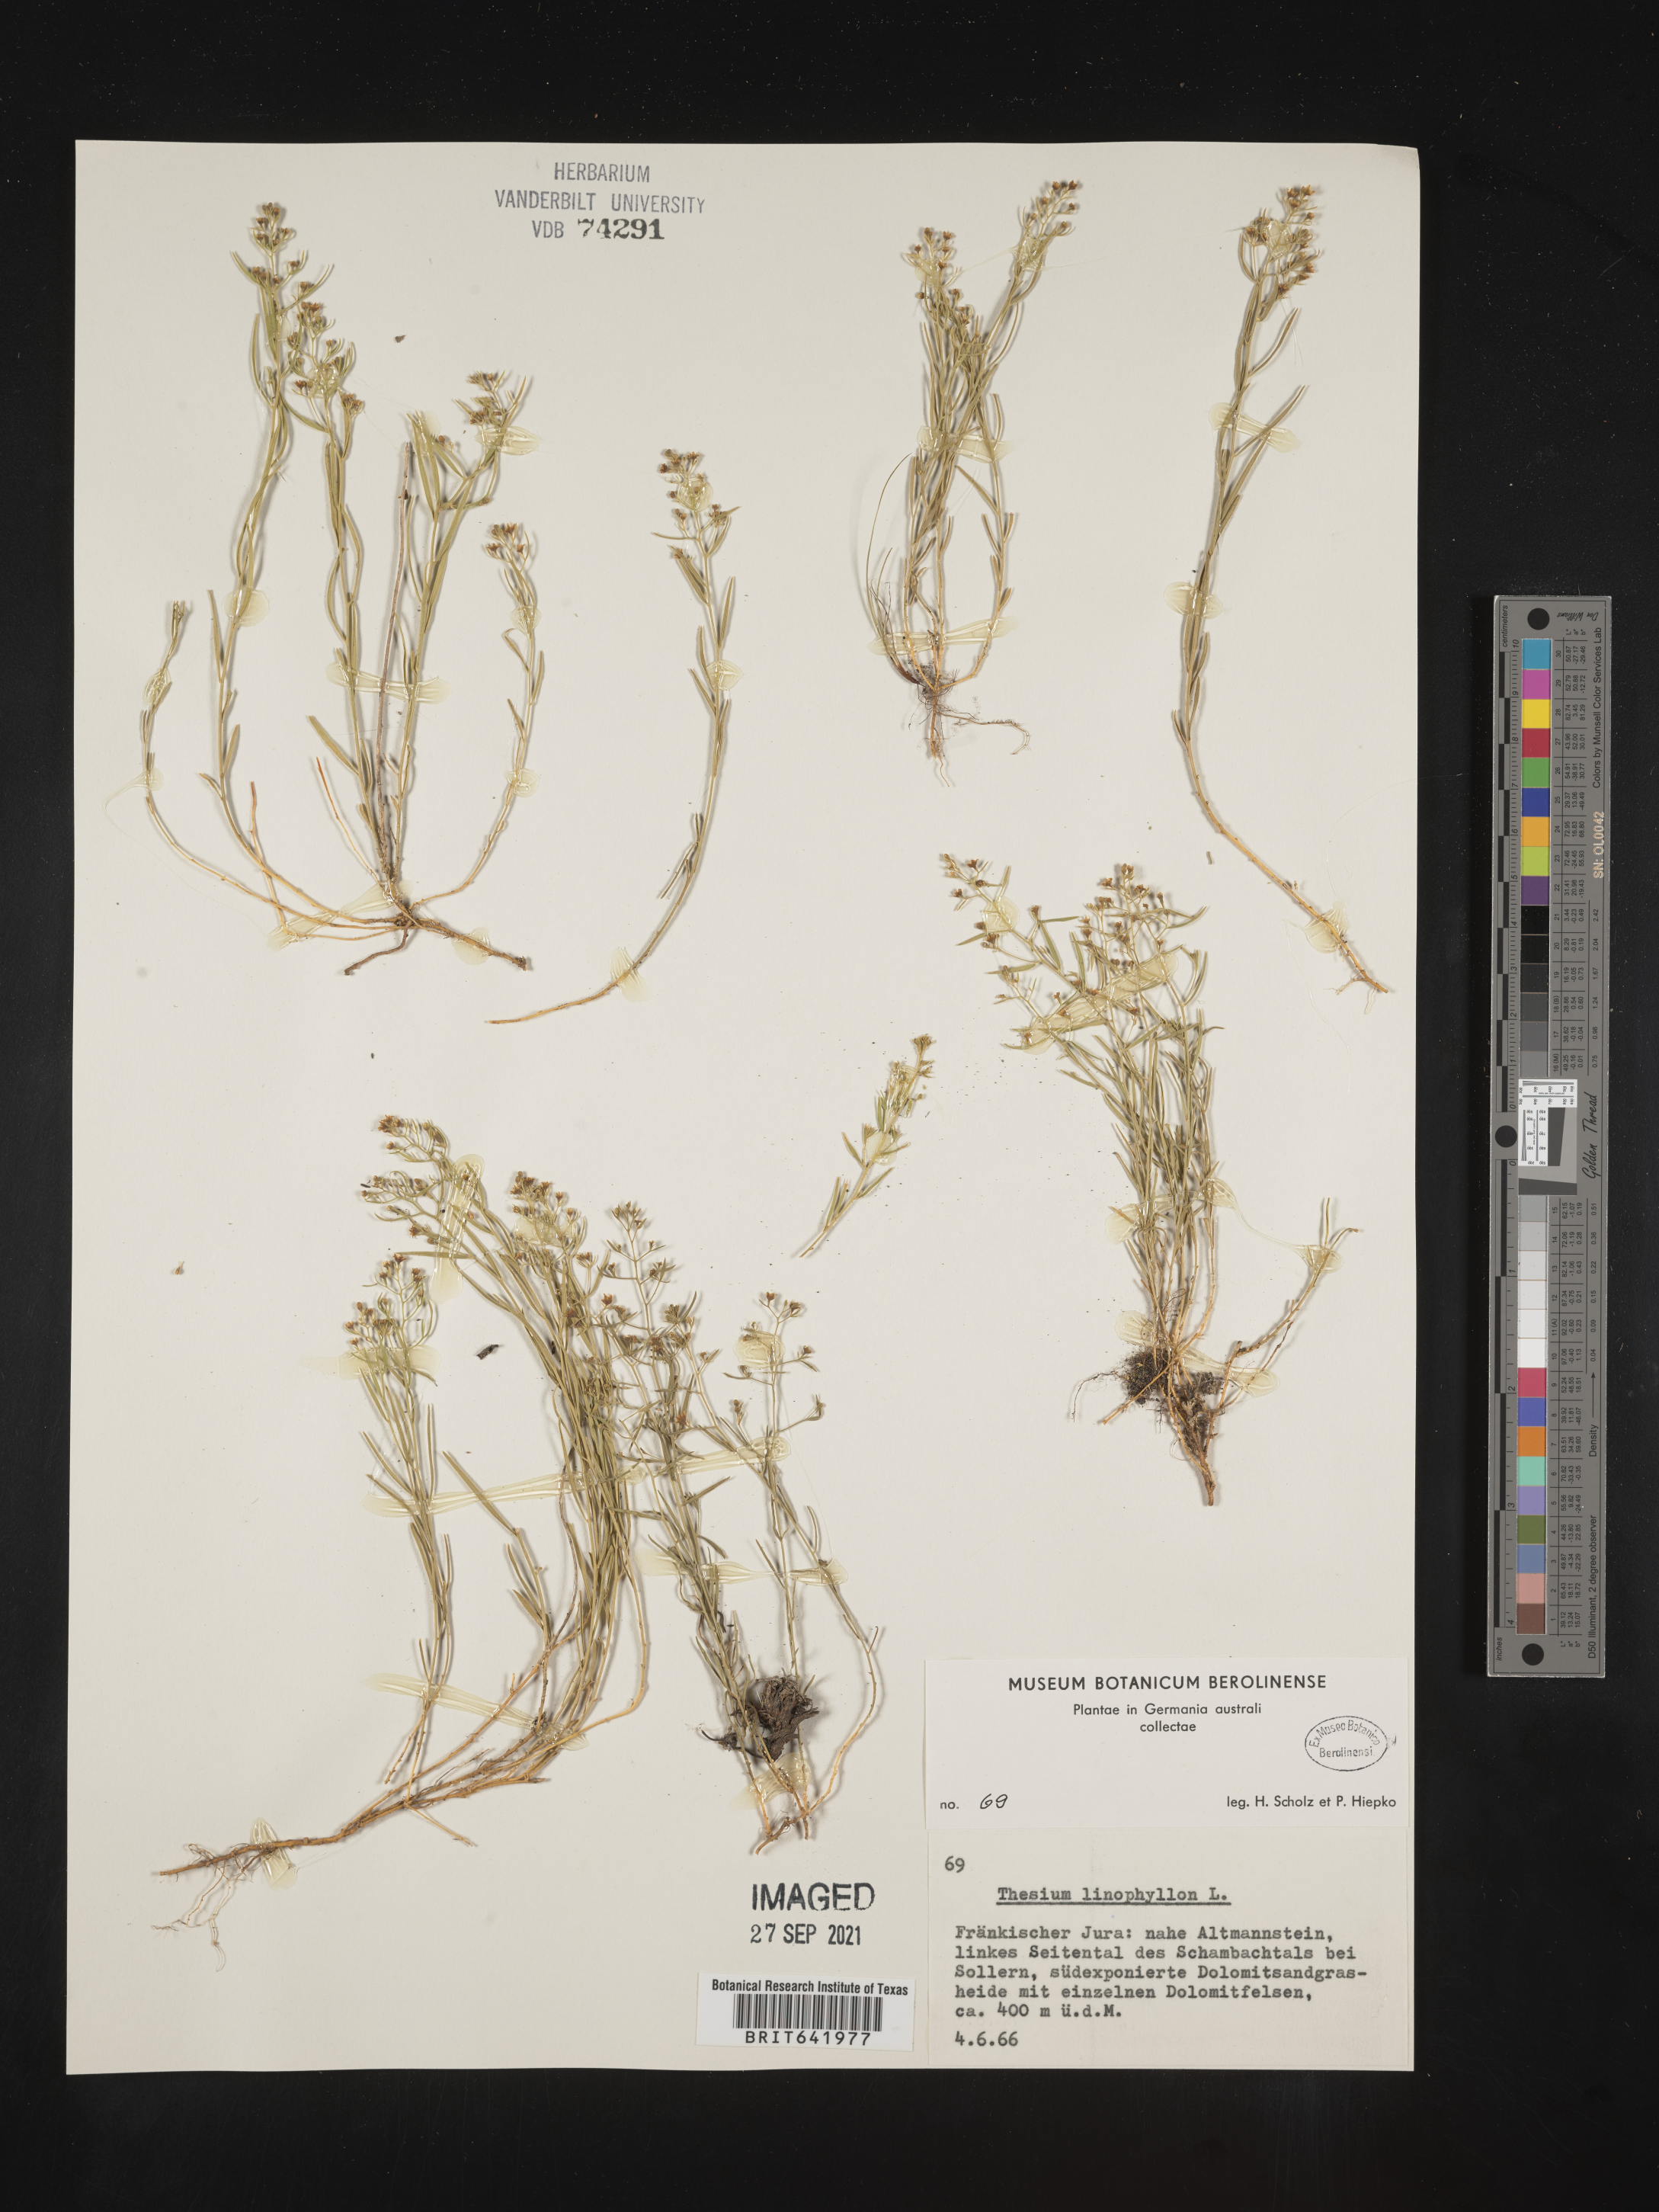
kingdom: Plantae
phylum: Tracheophyta
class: Magnoliopsida
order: Santalales
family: Thesiaceae
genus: Thesium
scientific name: Thesium
